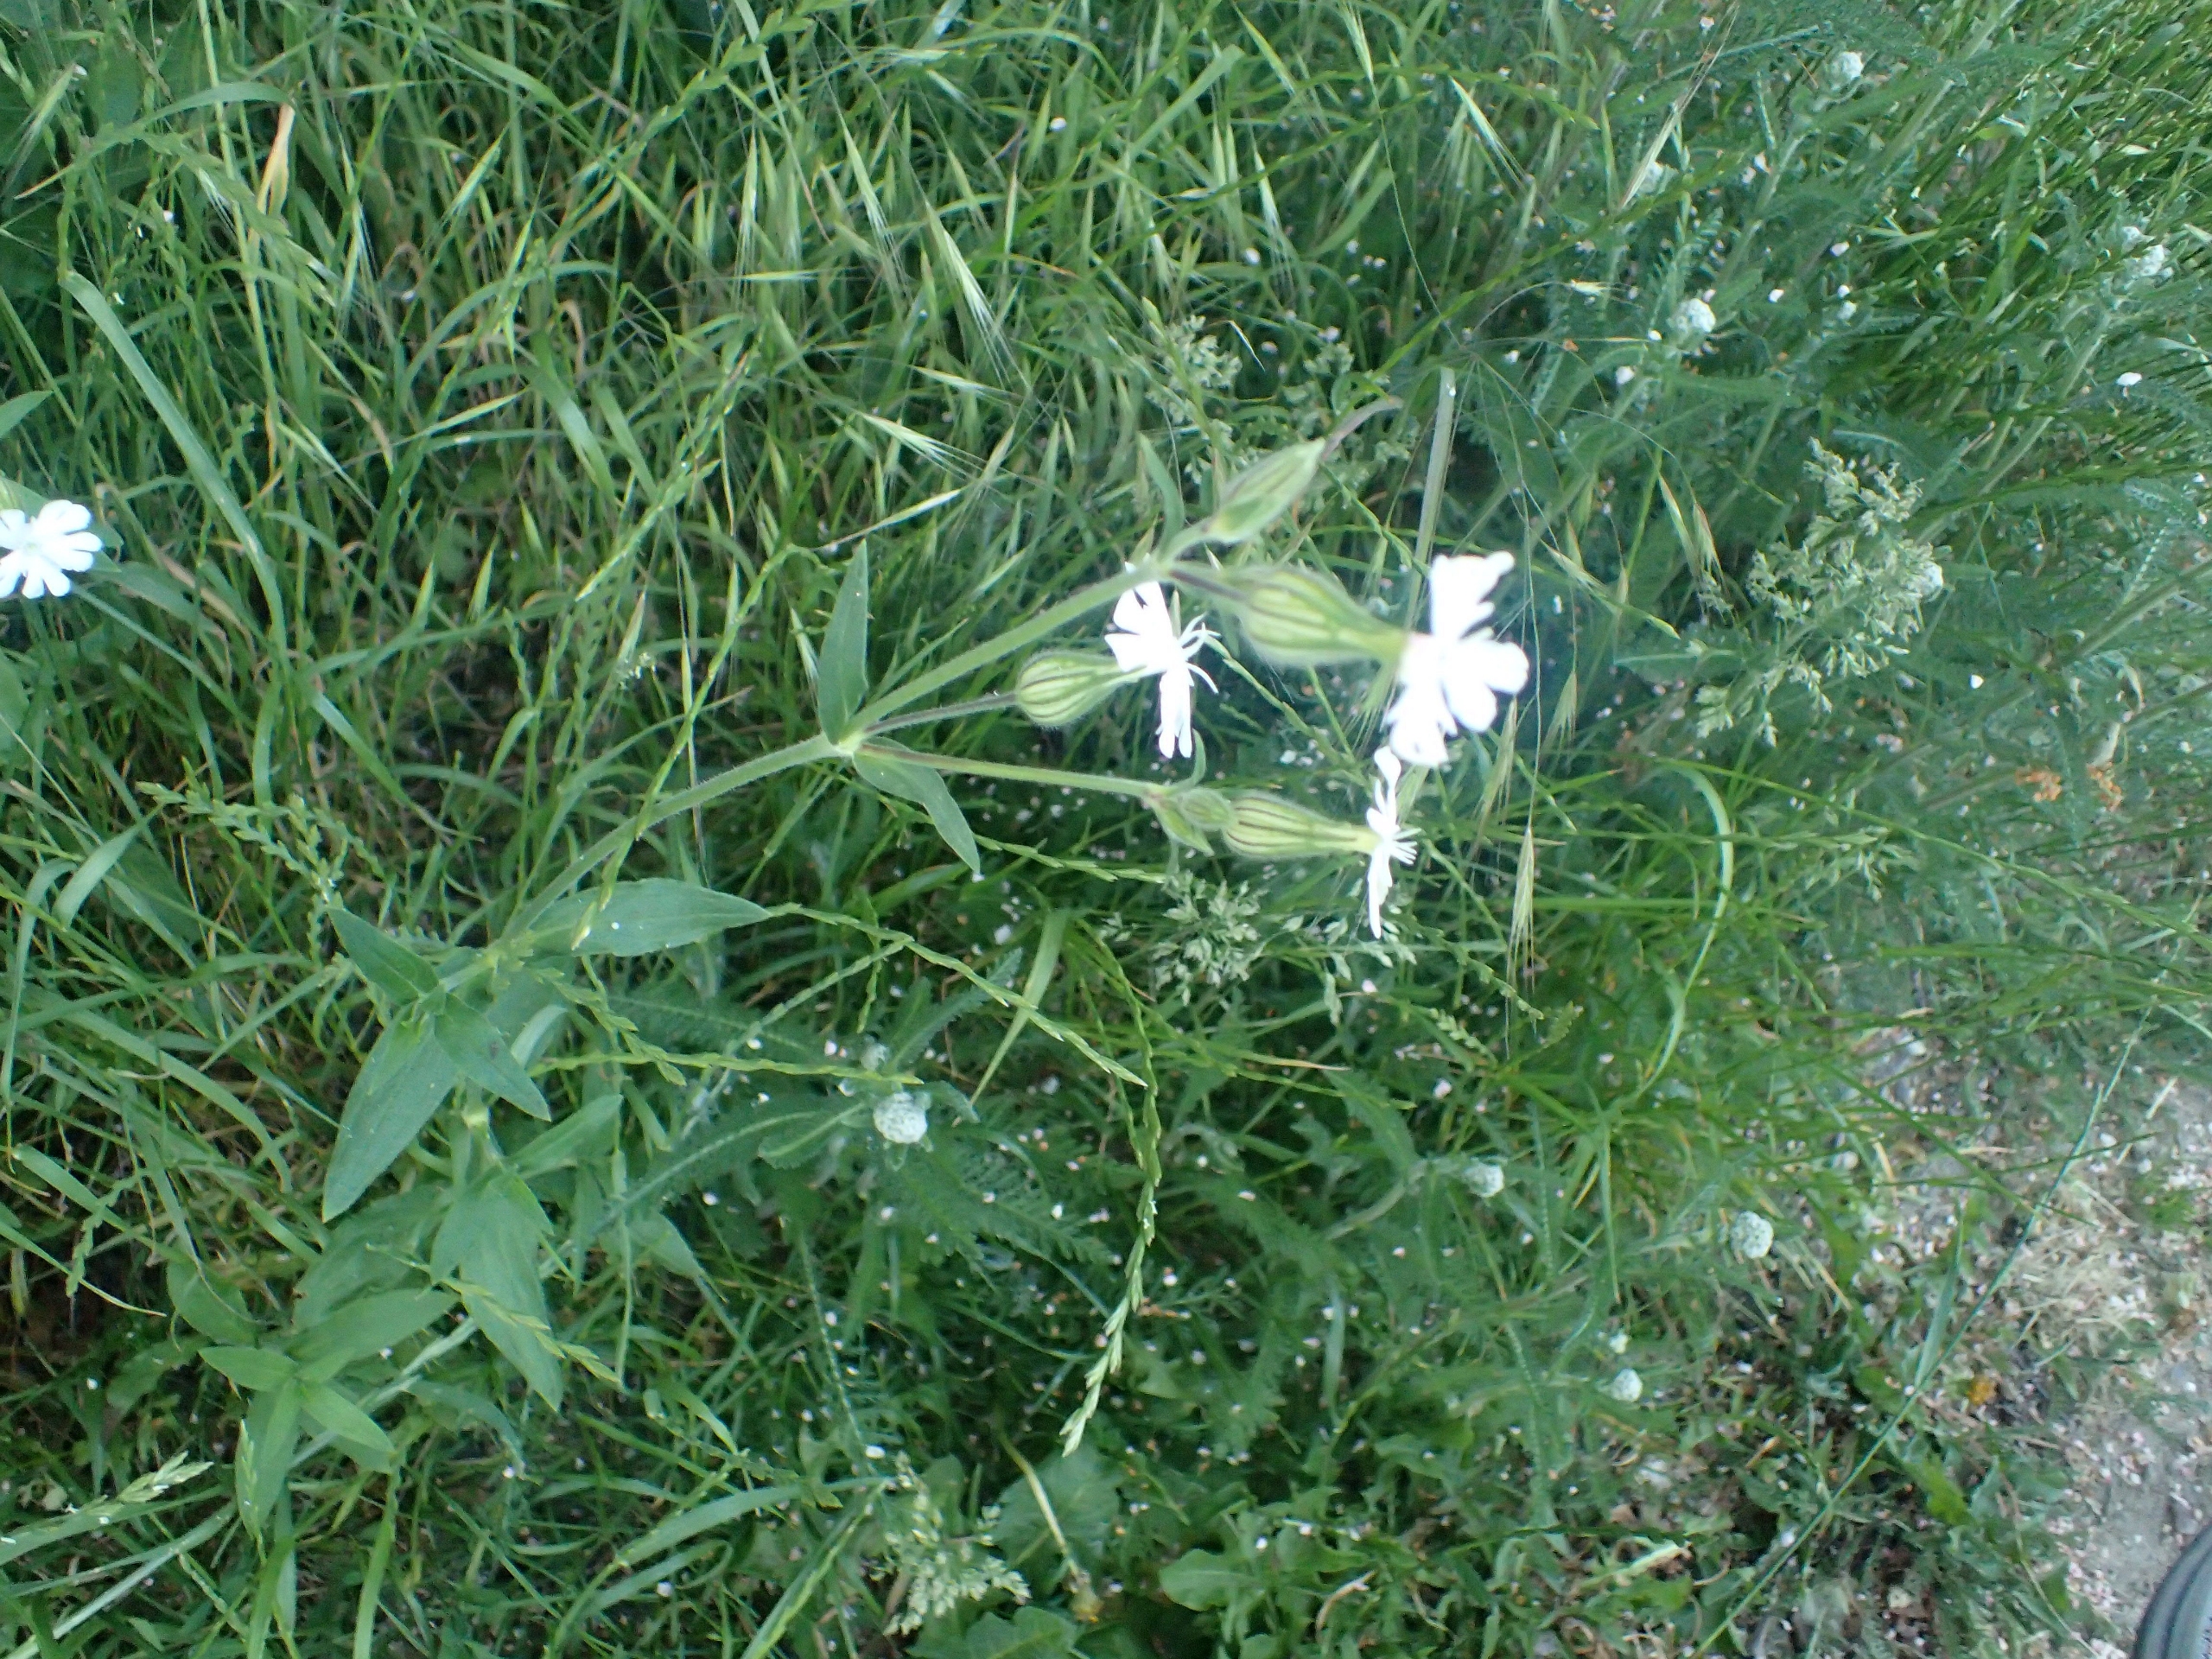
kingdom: Plantae
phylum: Tracheophyta
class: Magnoliopsida
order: Caryophyllales
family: Caryophyllaceae
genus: Silene
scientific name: Silene latifolia
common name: Aftenpragtstjerne
